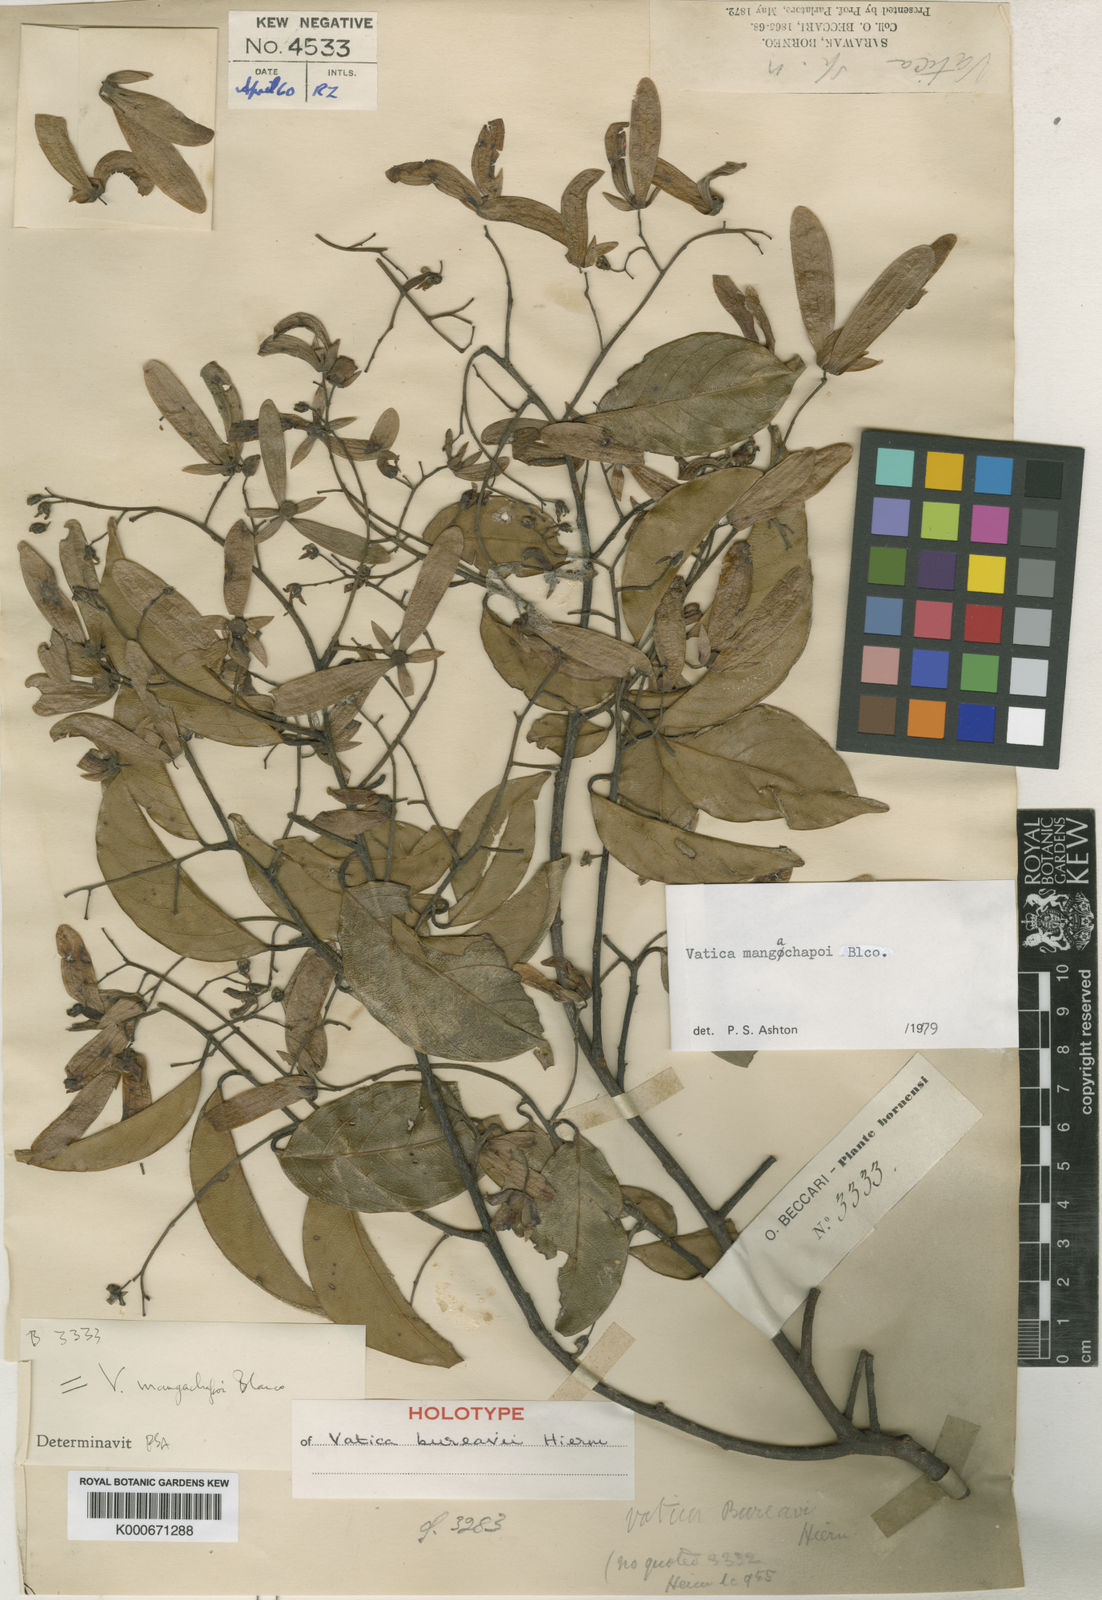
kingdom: Plantae
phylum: Tracheophyta
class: Magnoliopsida
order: Malvales
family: Dipterocarpaceae
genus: Vatica
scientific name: Vatica mangachapoi
